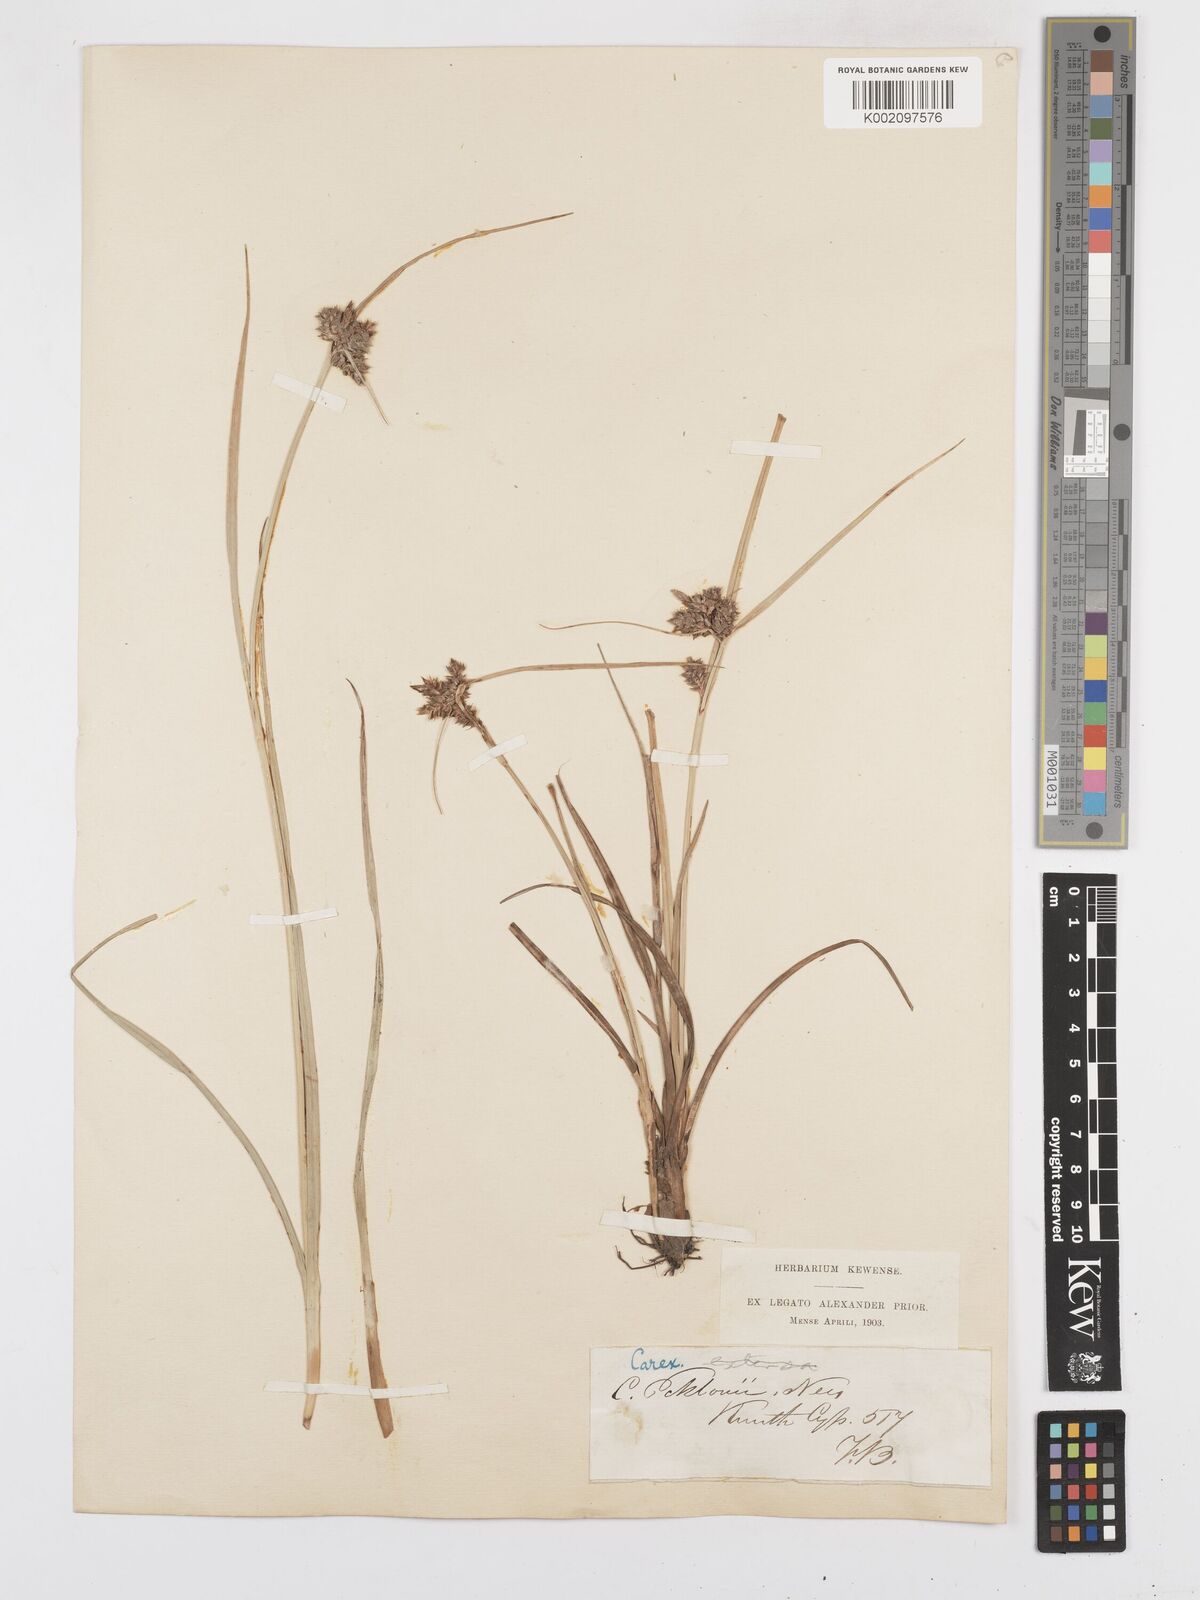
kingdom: Plantae
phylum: Tracheophyta
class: Liliopsida
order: Poales
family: Cyperaceae
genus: Carex
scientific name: Carex extensa
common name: Long-bracted sedge
